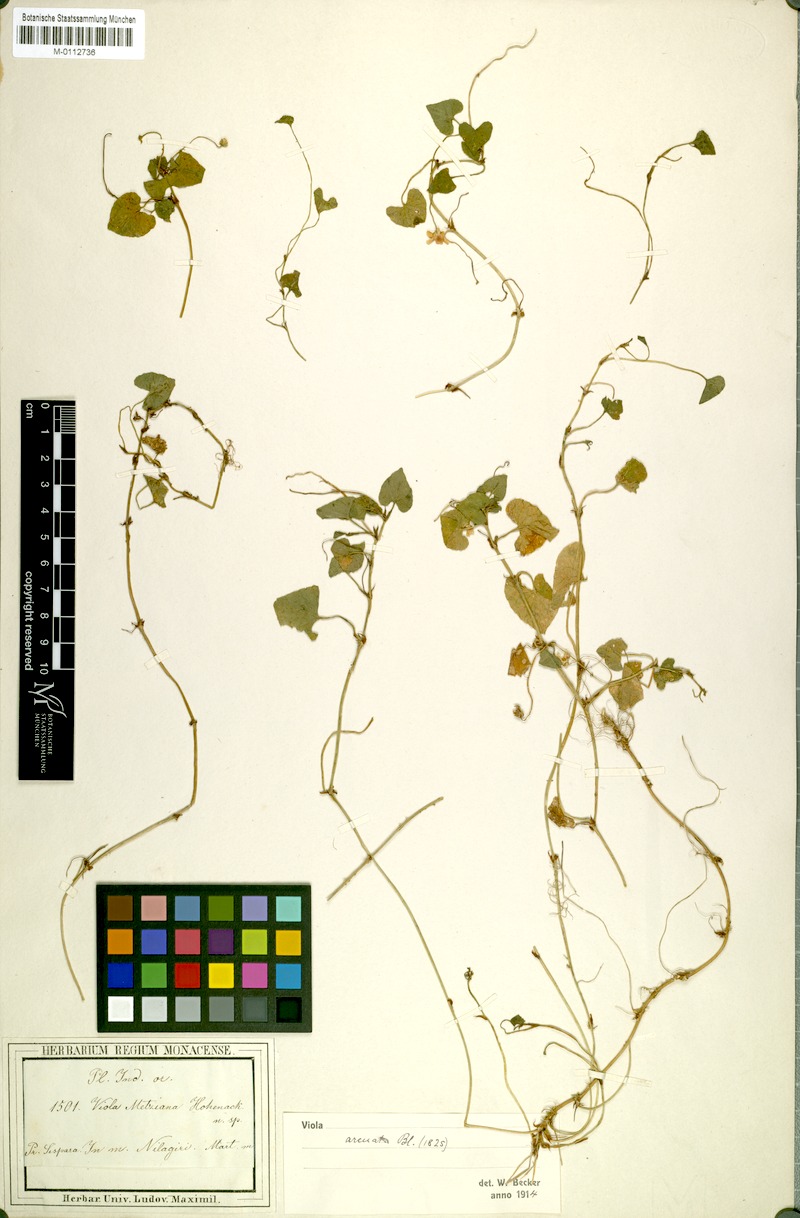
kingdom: Plantae
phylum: Tracheophyta
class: Magnoliopsida
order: Malpighiales
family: Violaceae
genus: Viola
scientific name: Viola hamiltoniana
